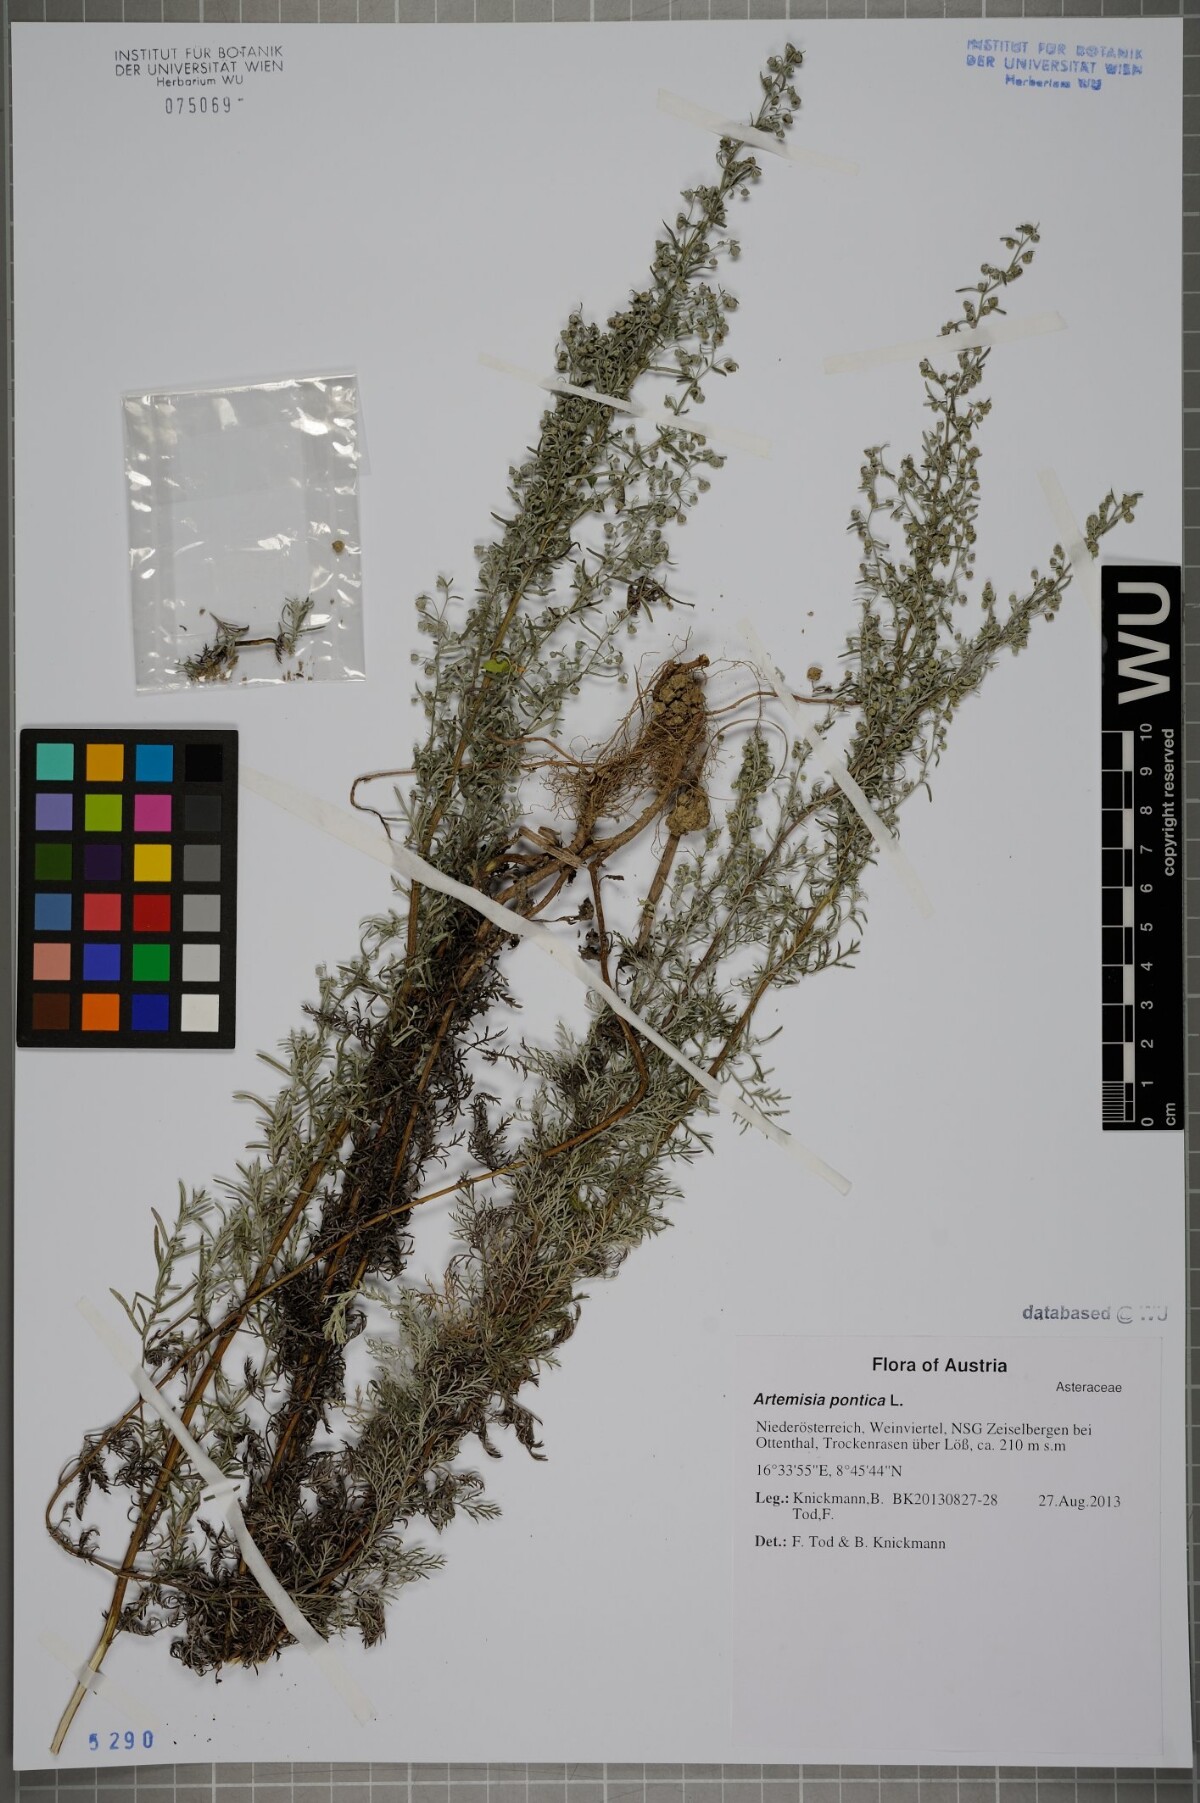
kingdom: Plantae
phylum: Tracheophyta
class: Magnoliopsida
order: Asterales
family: Asteraceae
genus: Artemisia
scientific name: Artemisia pontica
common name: Roman wormwood
